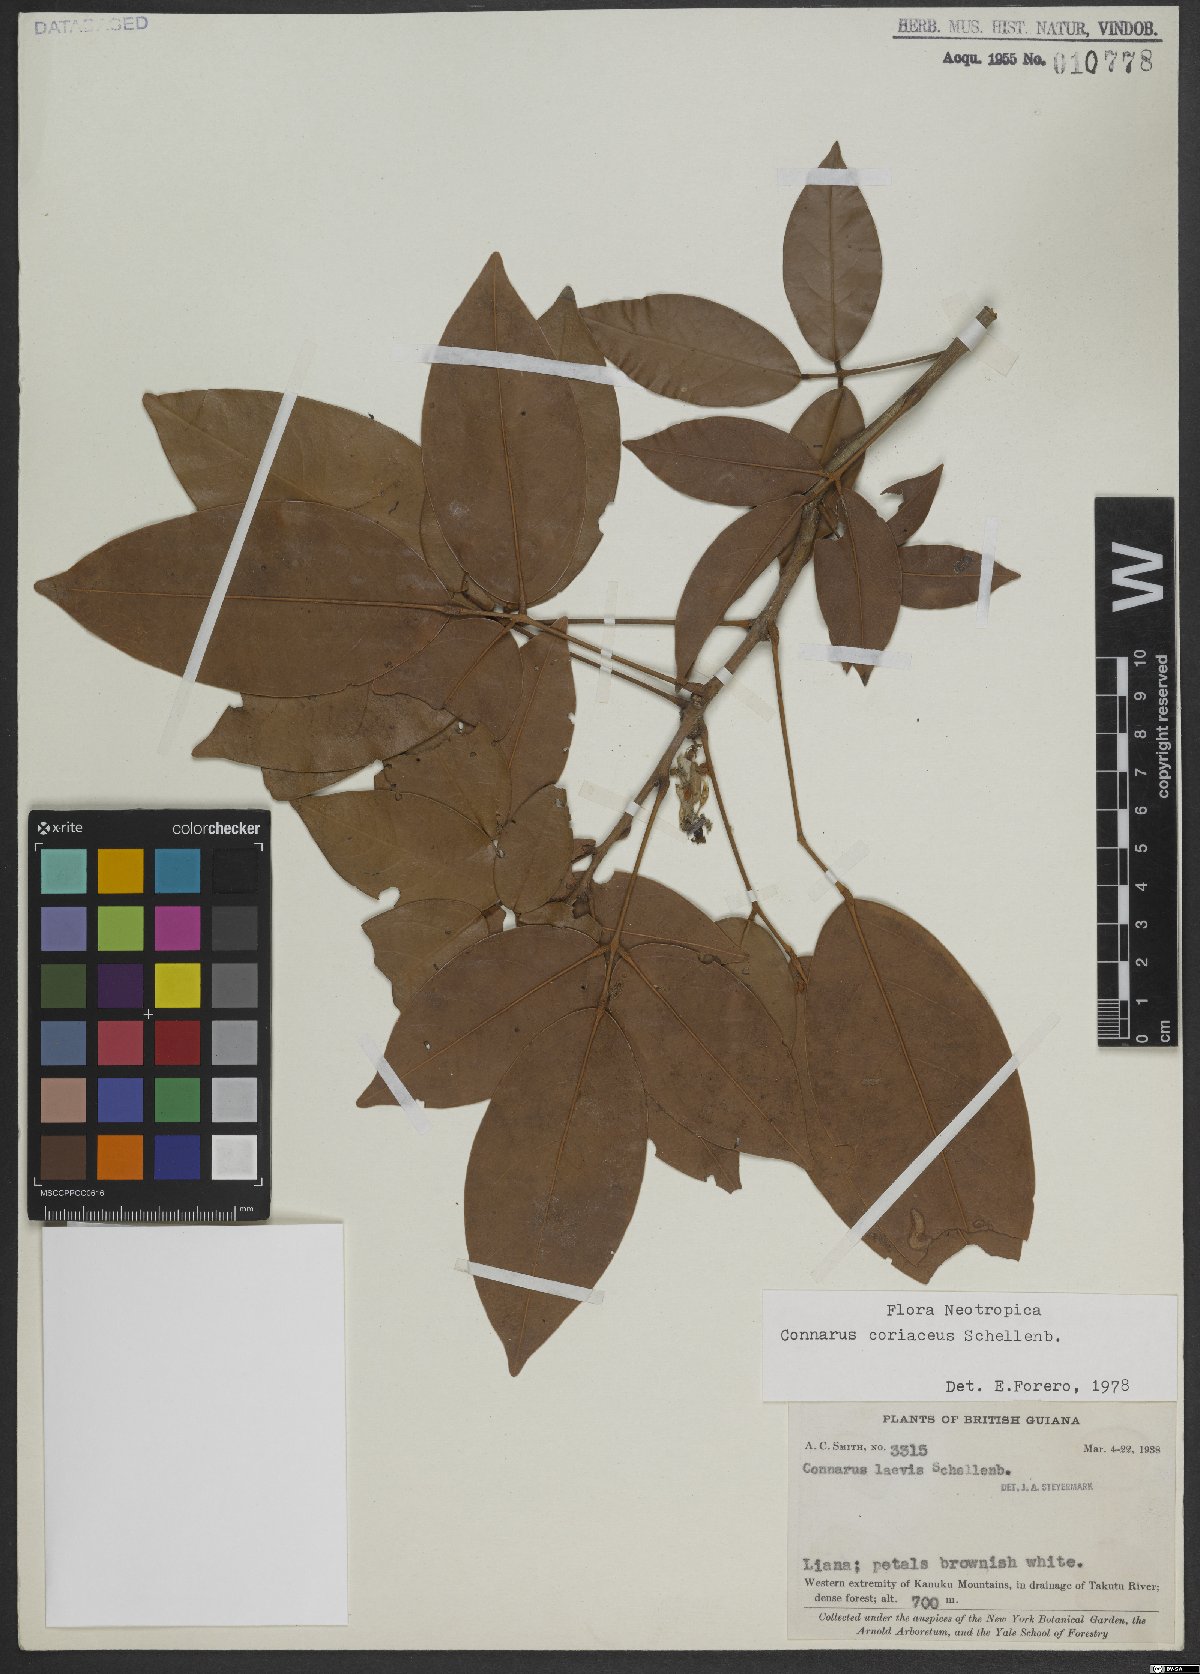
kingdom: Plantae
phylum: Tracheophyta
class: Magnoliopsida
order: Oxalidales
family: Connaraceae
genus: Connarus
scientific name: Connarus coriaceus
